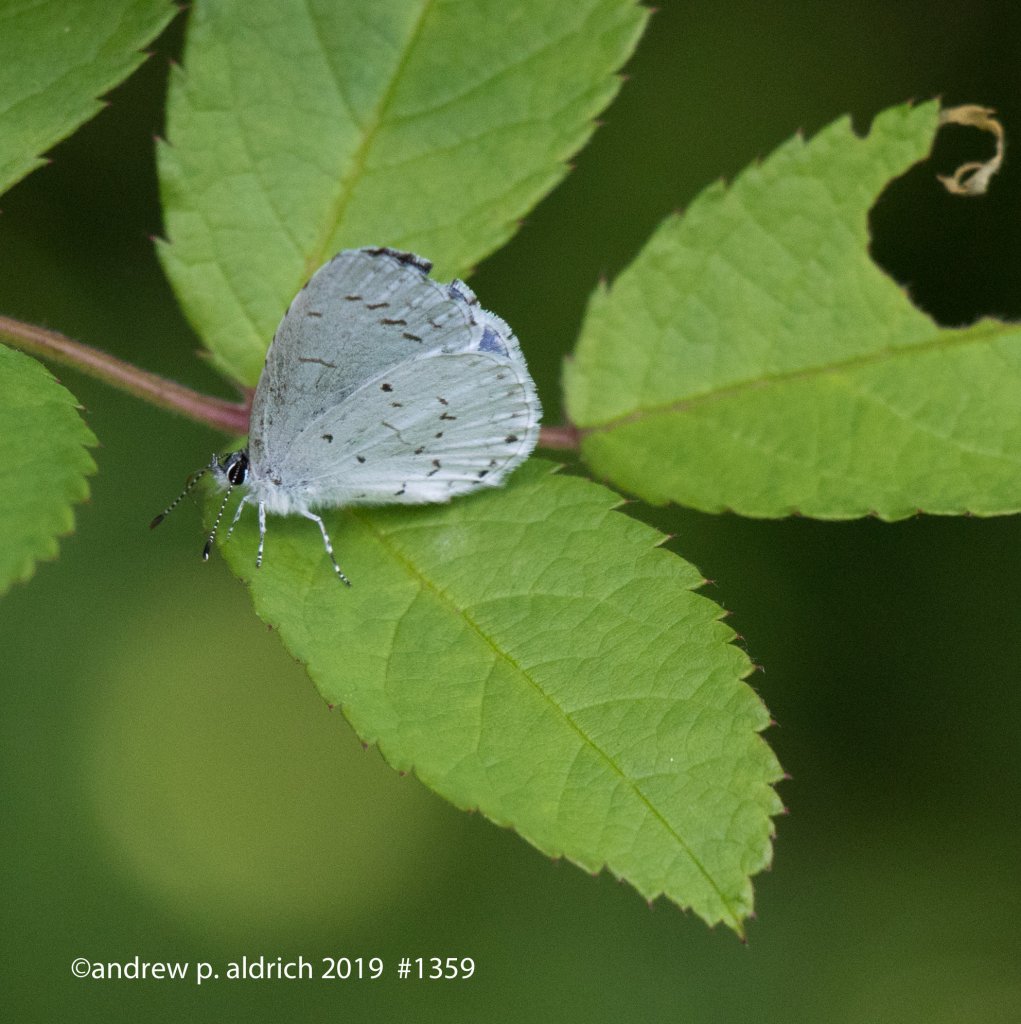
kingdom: Animalia
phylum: Arthropoda
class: Insecta
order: Lepidoptera
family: Lycaenidae
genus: Cyaniris
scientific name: Cyaniris neglecta
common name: Summer Azure
